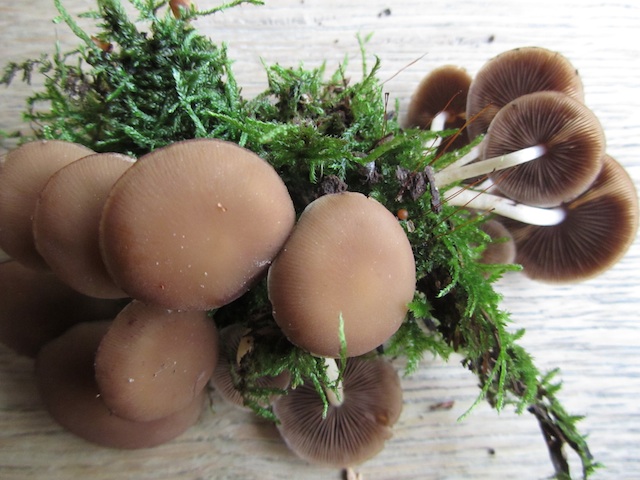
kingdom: Fungi
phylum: Basidiomycota
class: Agaricomycetes
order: Agaricales
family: Psathyrellaceae
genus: Psathyrella
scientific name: Psathyrella piluliformis
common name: lysstokket mørkhat
